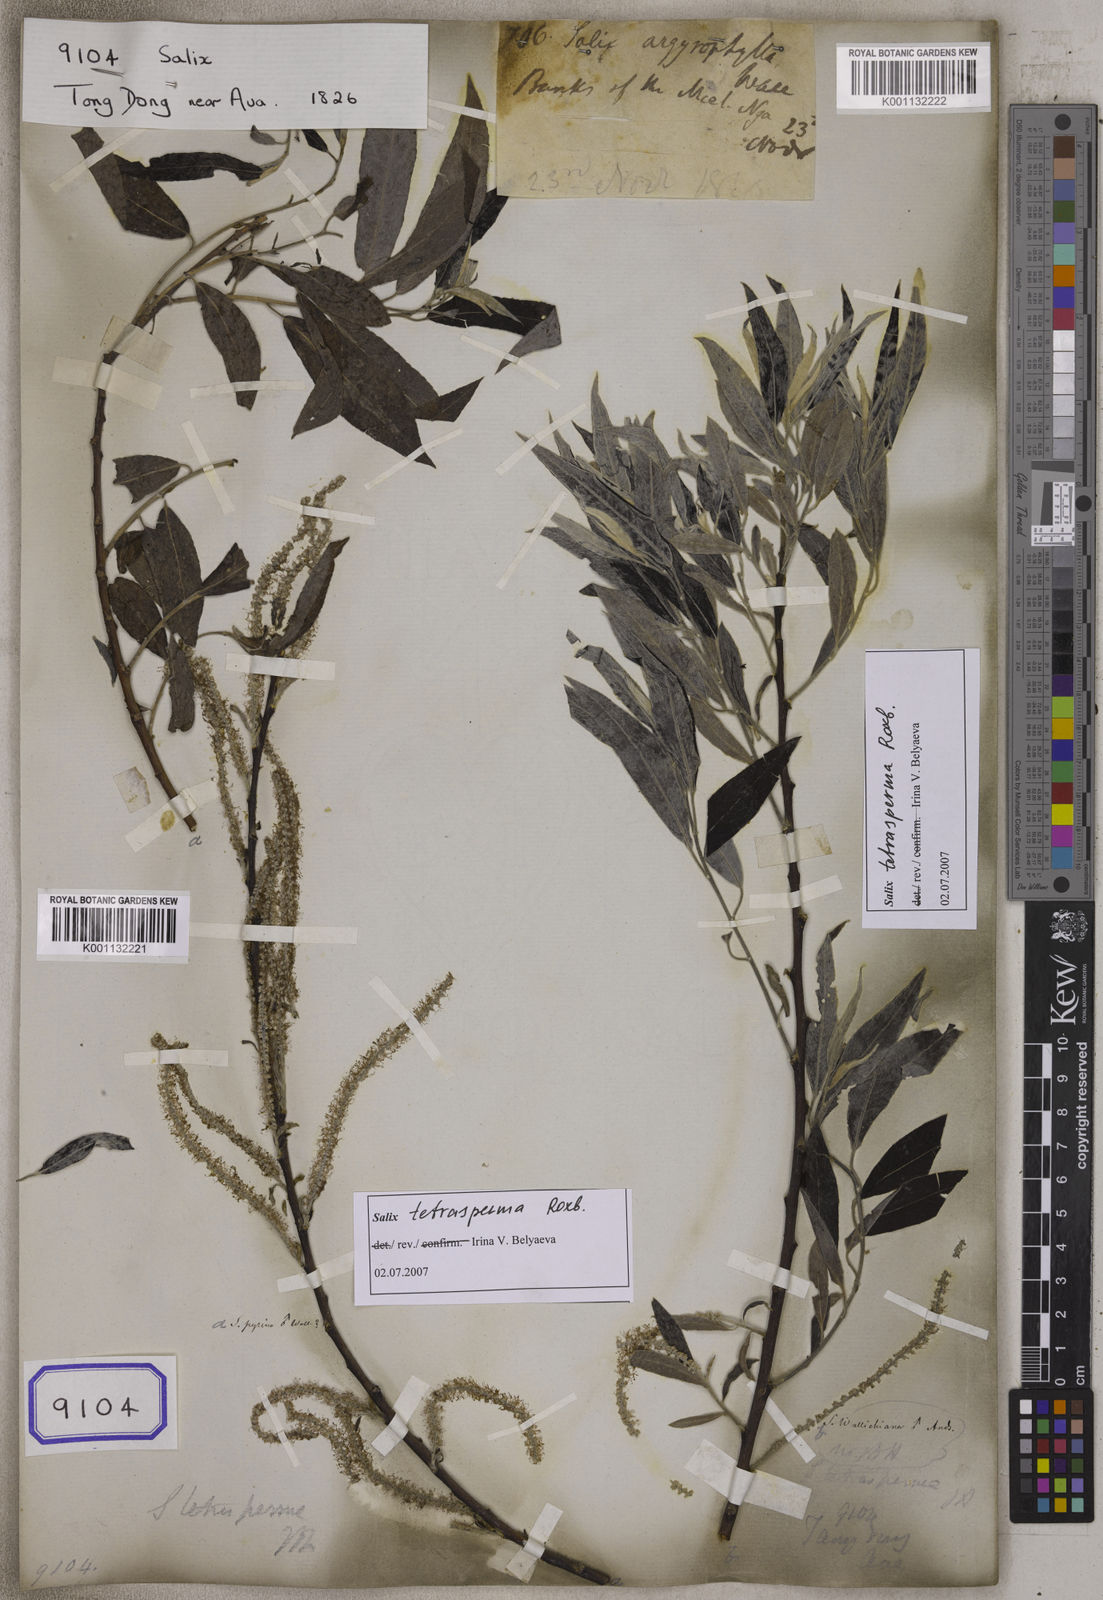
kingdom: Plantae
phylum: Tracheophyta
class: Magnoliopsida
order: Malpighiales
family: Salicaceae
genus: Salix
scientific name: Salix
